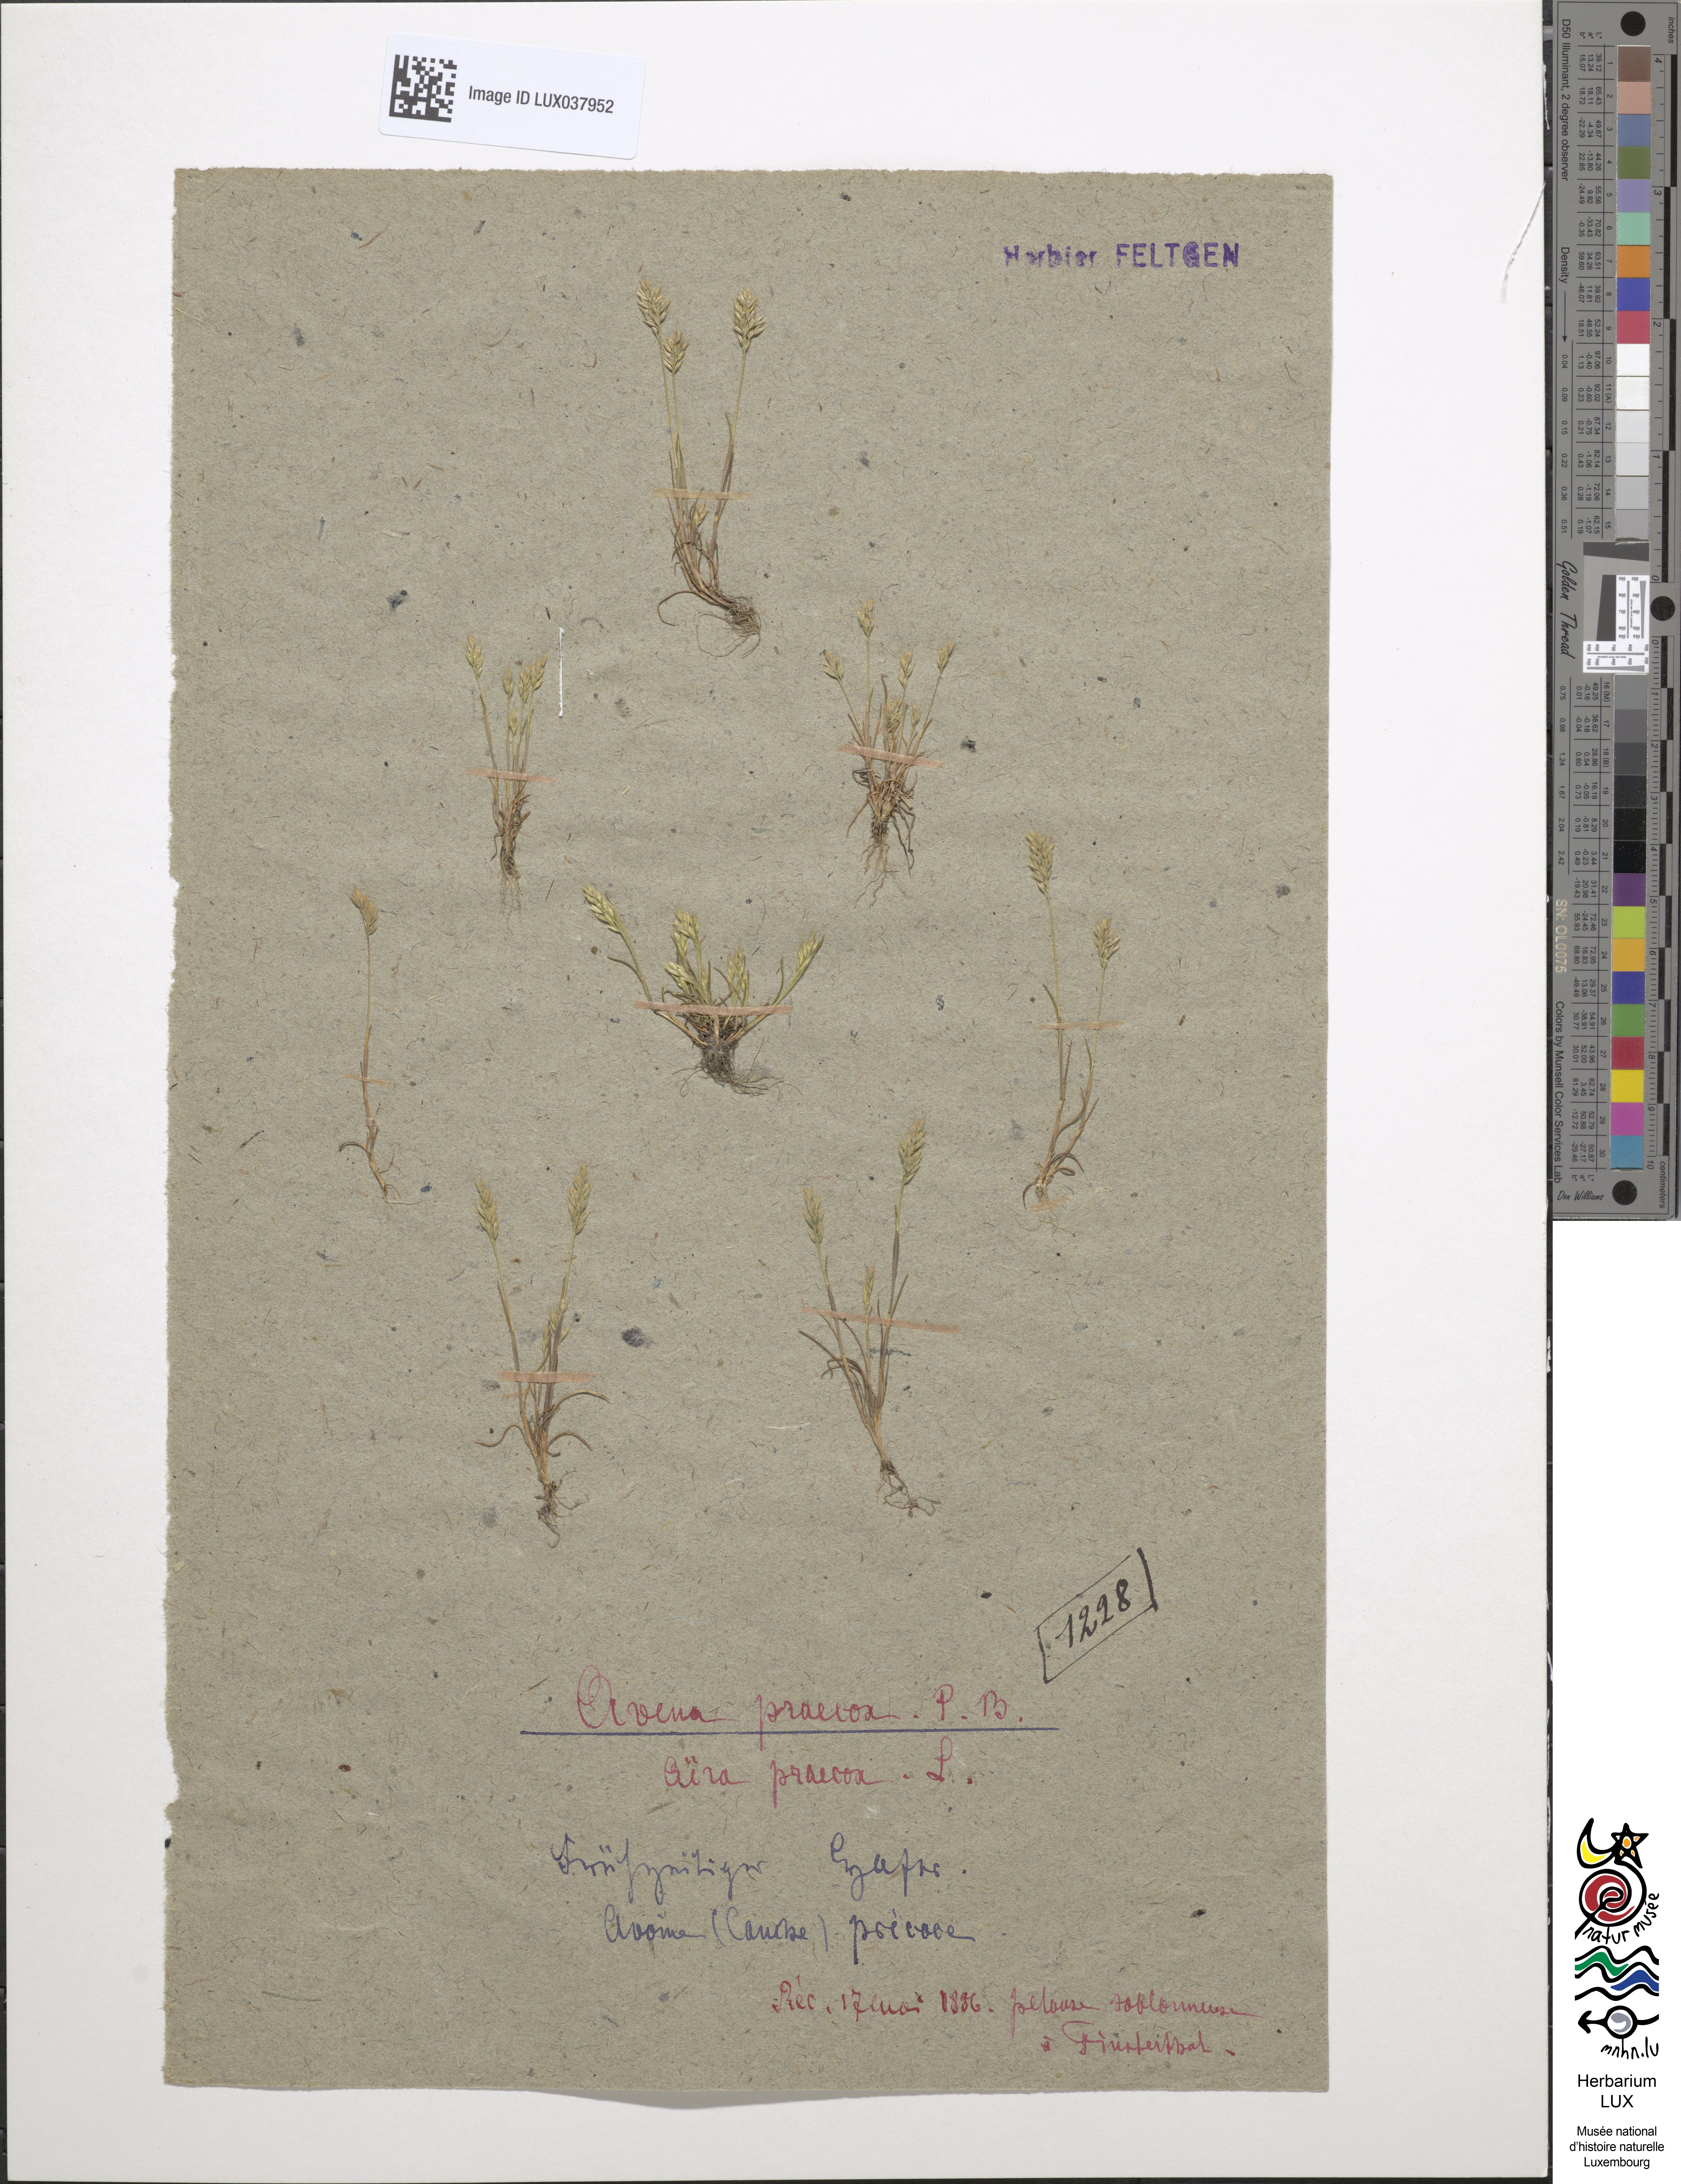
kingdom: Plantae
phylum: Tracheophyta
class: Liliopsida
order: Poales
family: Poaceae
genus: Aira
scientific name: Aira praecox
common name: Early hair-grass
